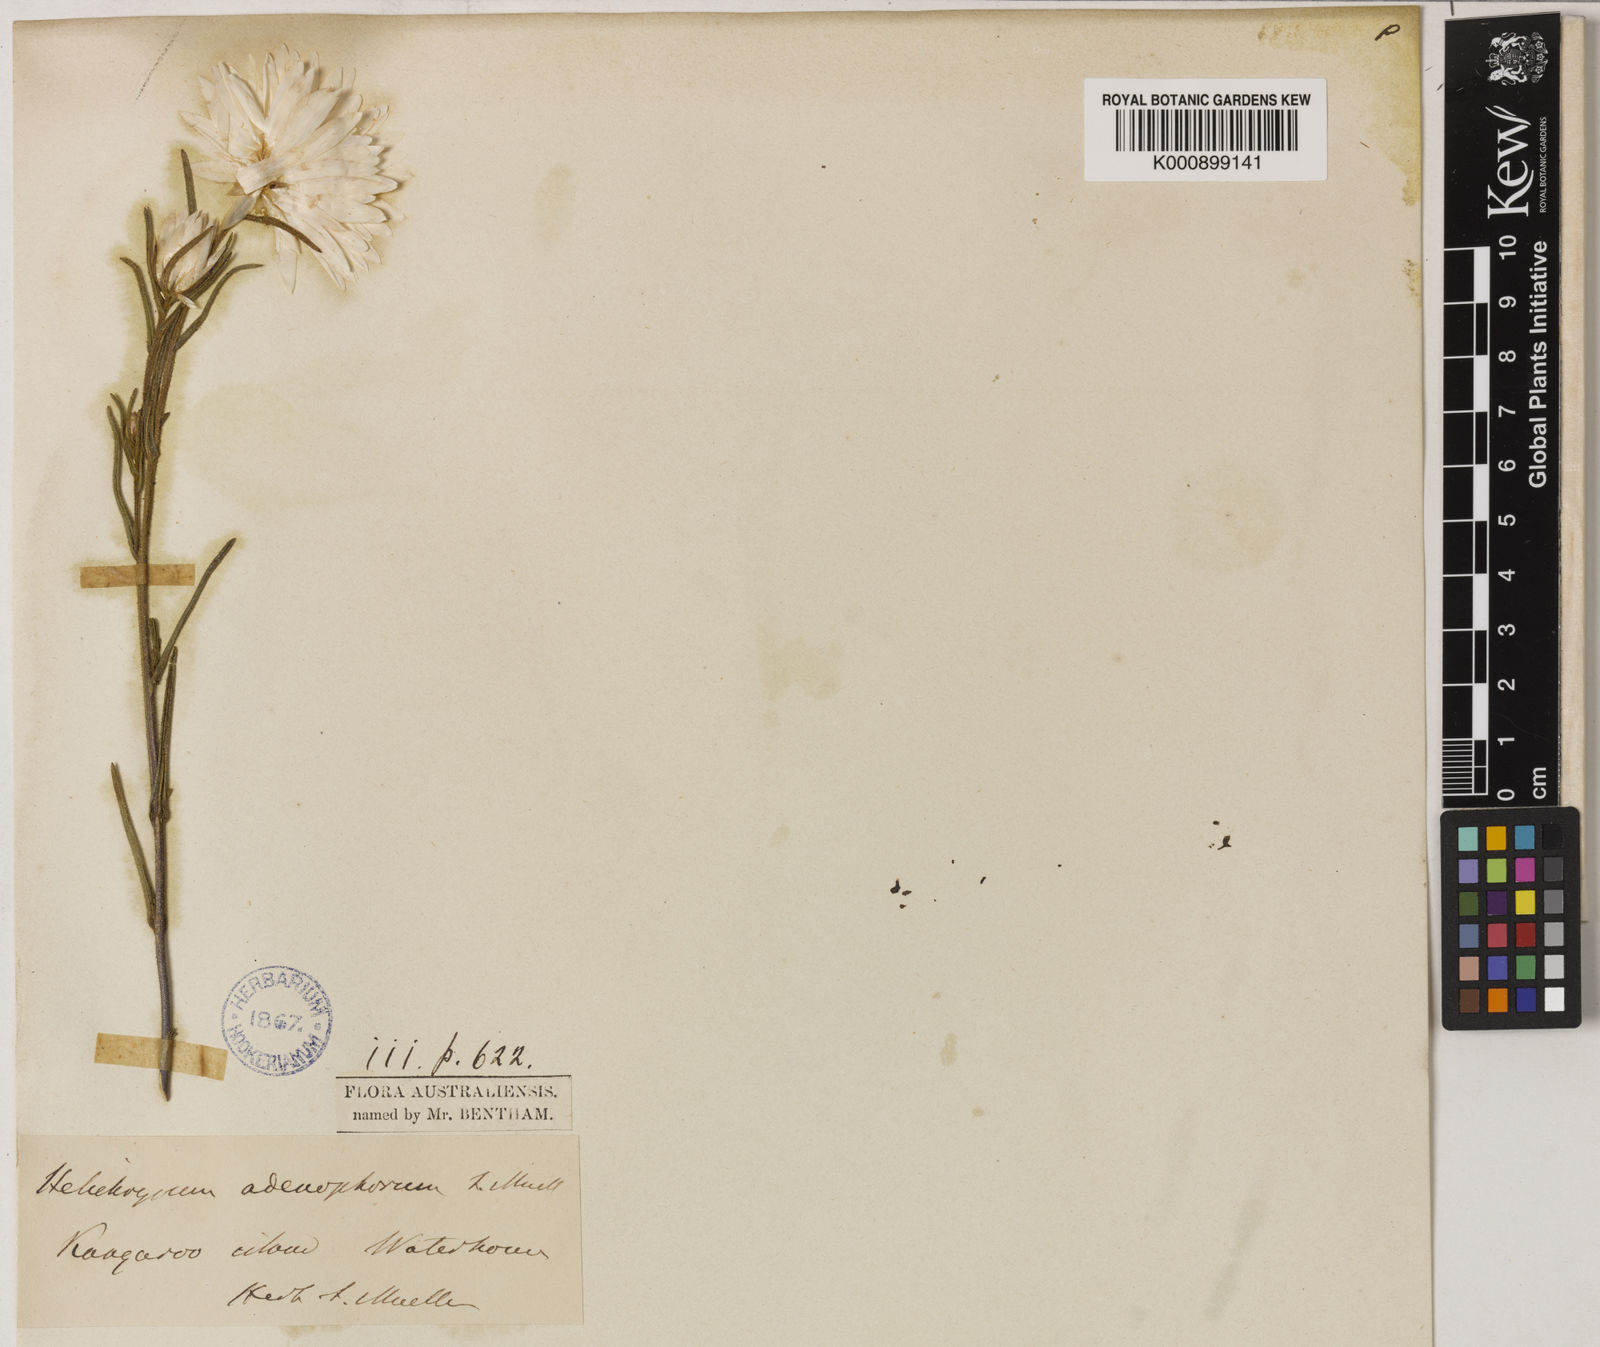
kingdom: Plantae
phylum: Tracheophyta
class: Magnoliopsida
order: Asterales
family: Asteraceae
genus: Coronidium
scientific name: Coronidium adenophorum
